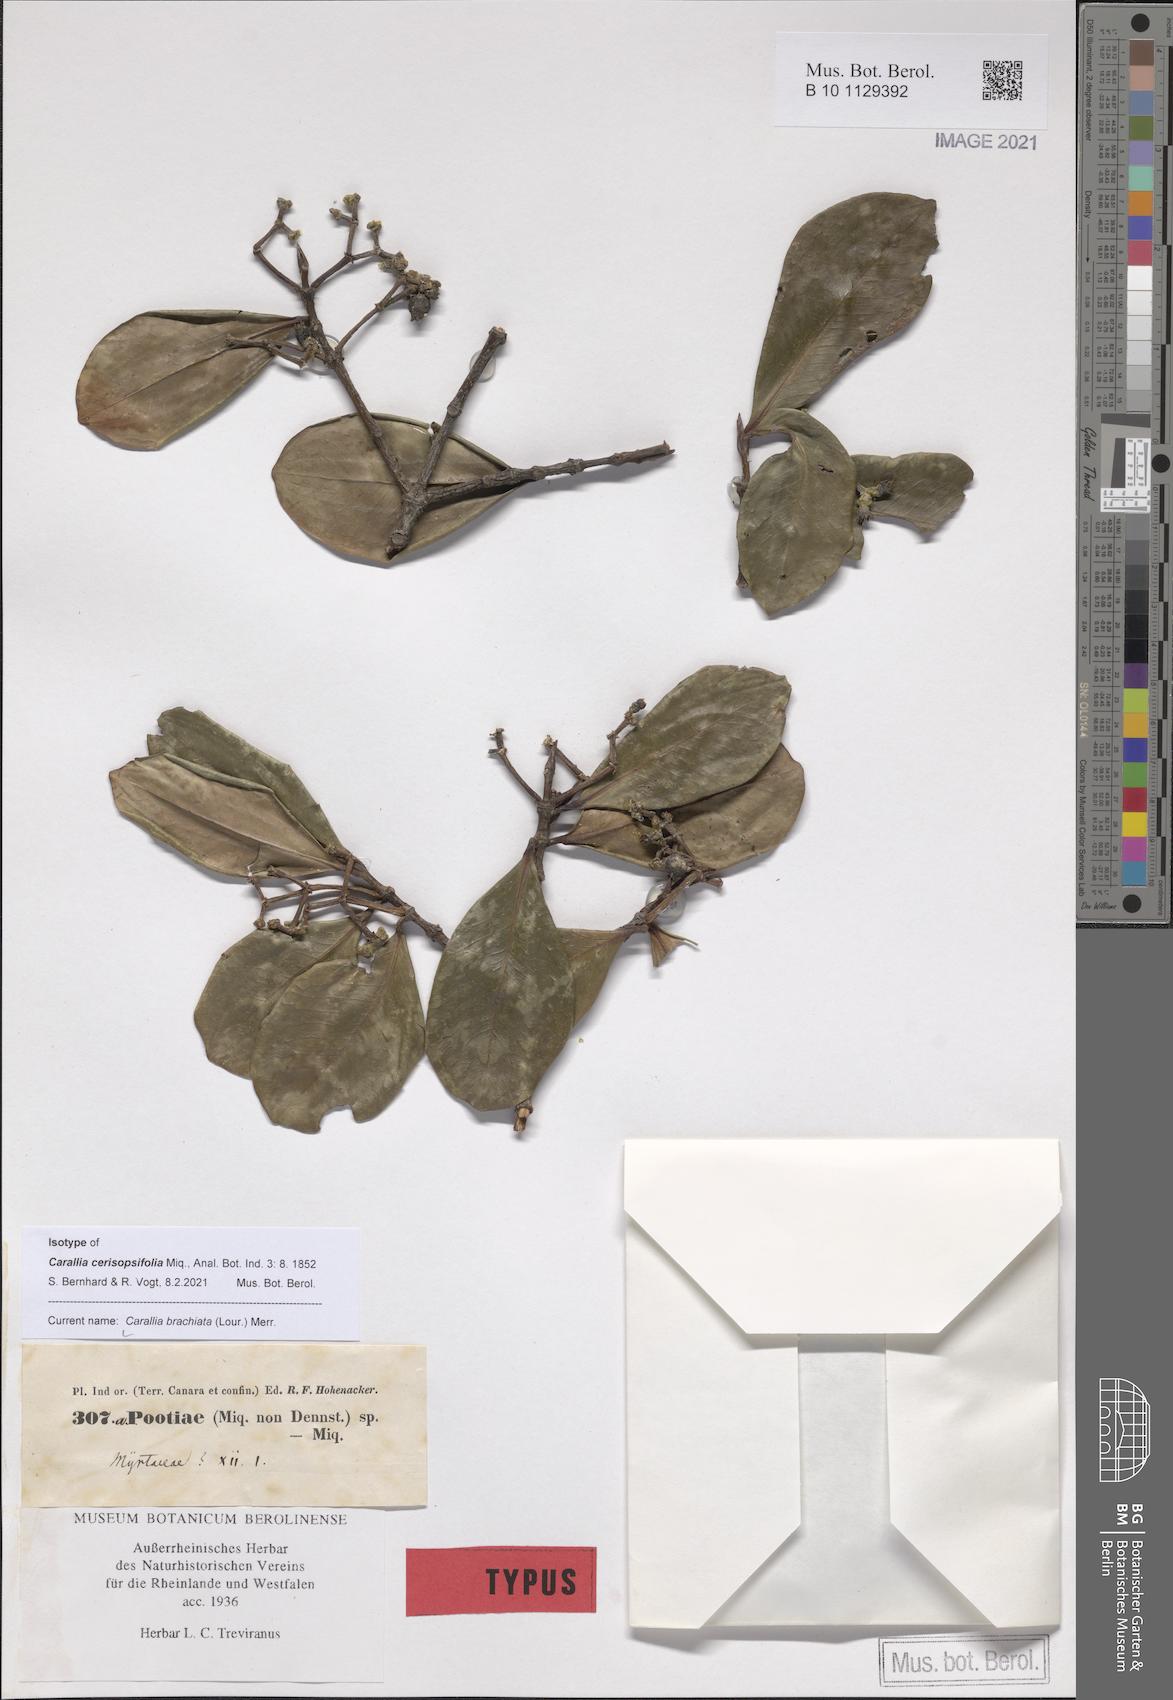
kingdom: Plantae
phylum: Tracheophyta
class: Magnoliopsida
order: Malpighiales
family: Rhizophoraceae
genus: Carallia
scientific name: Carallia brachiata
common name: Carallawood
